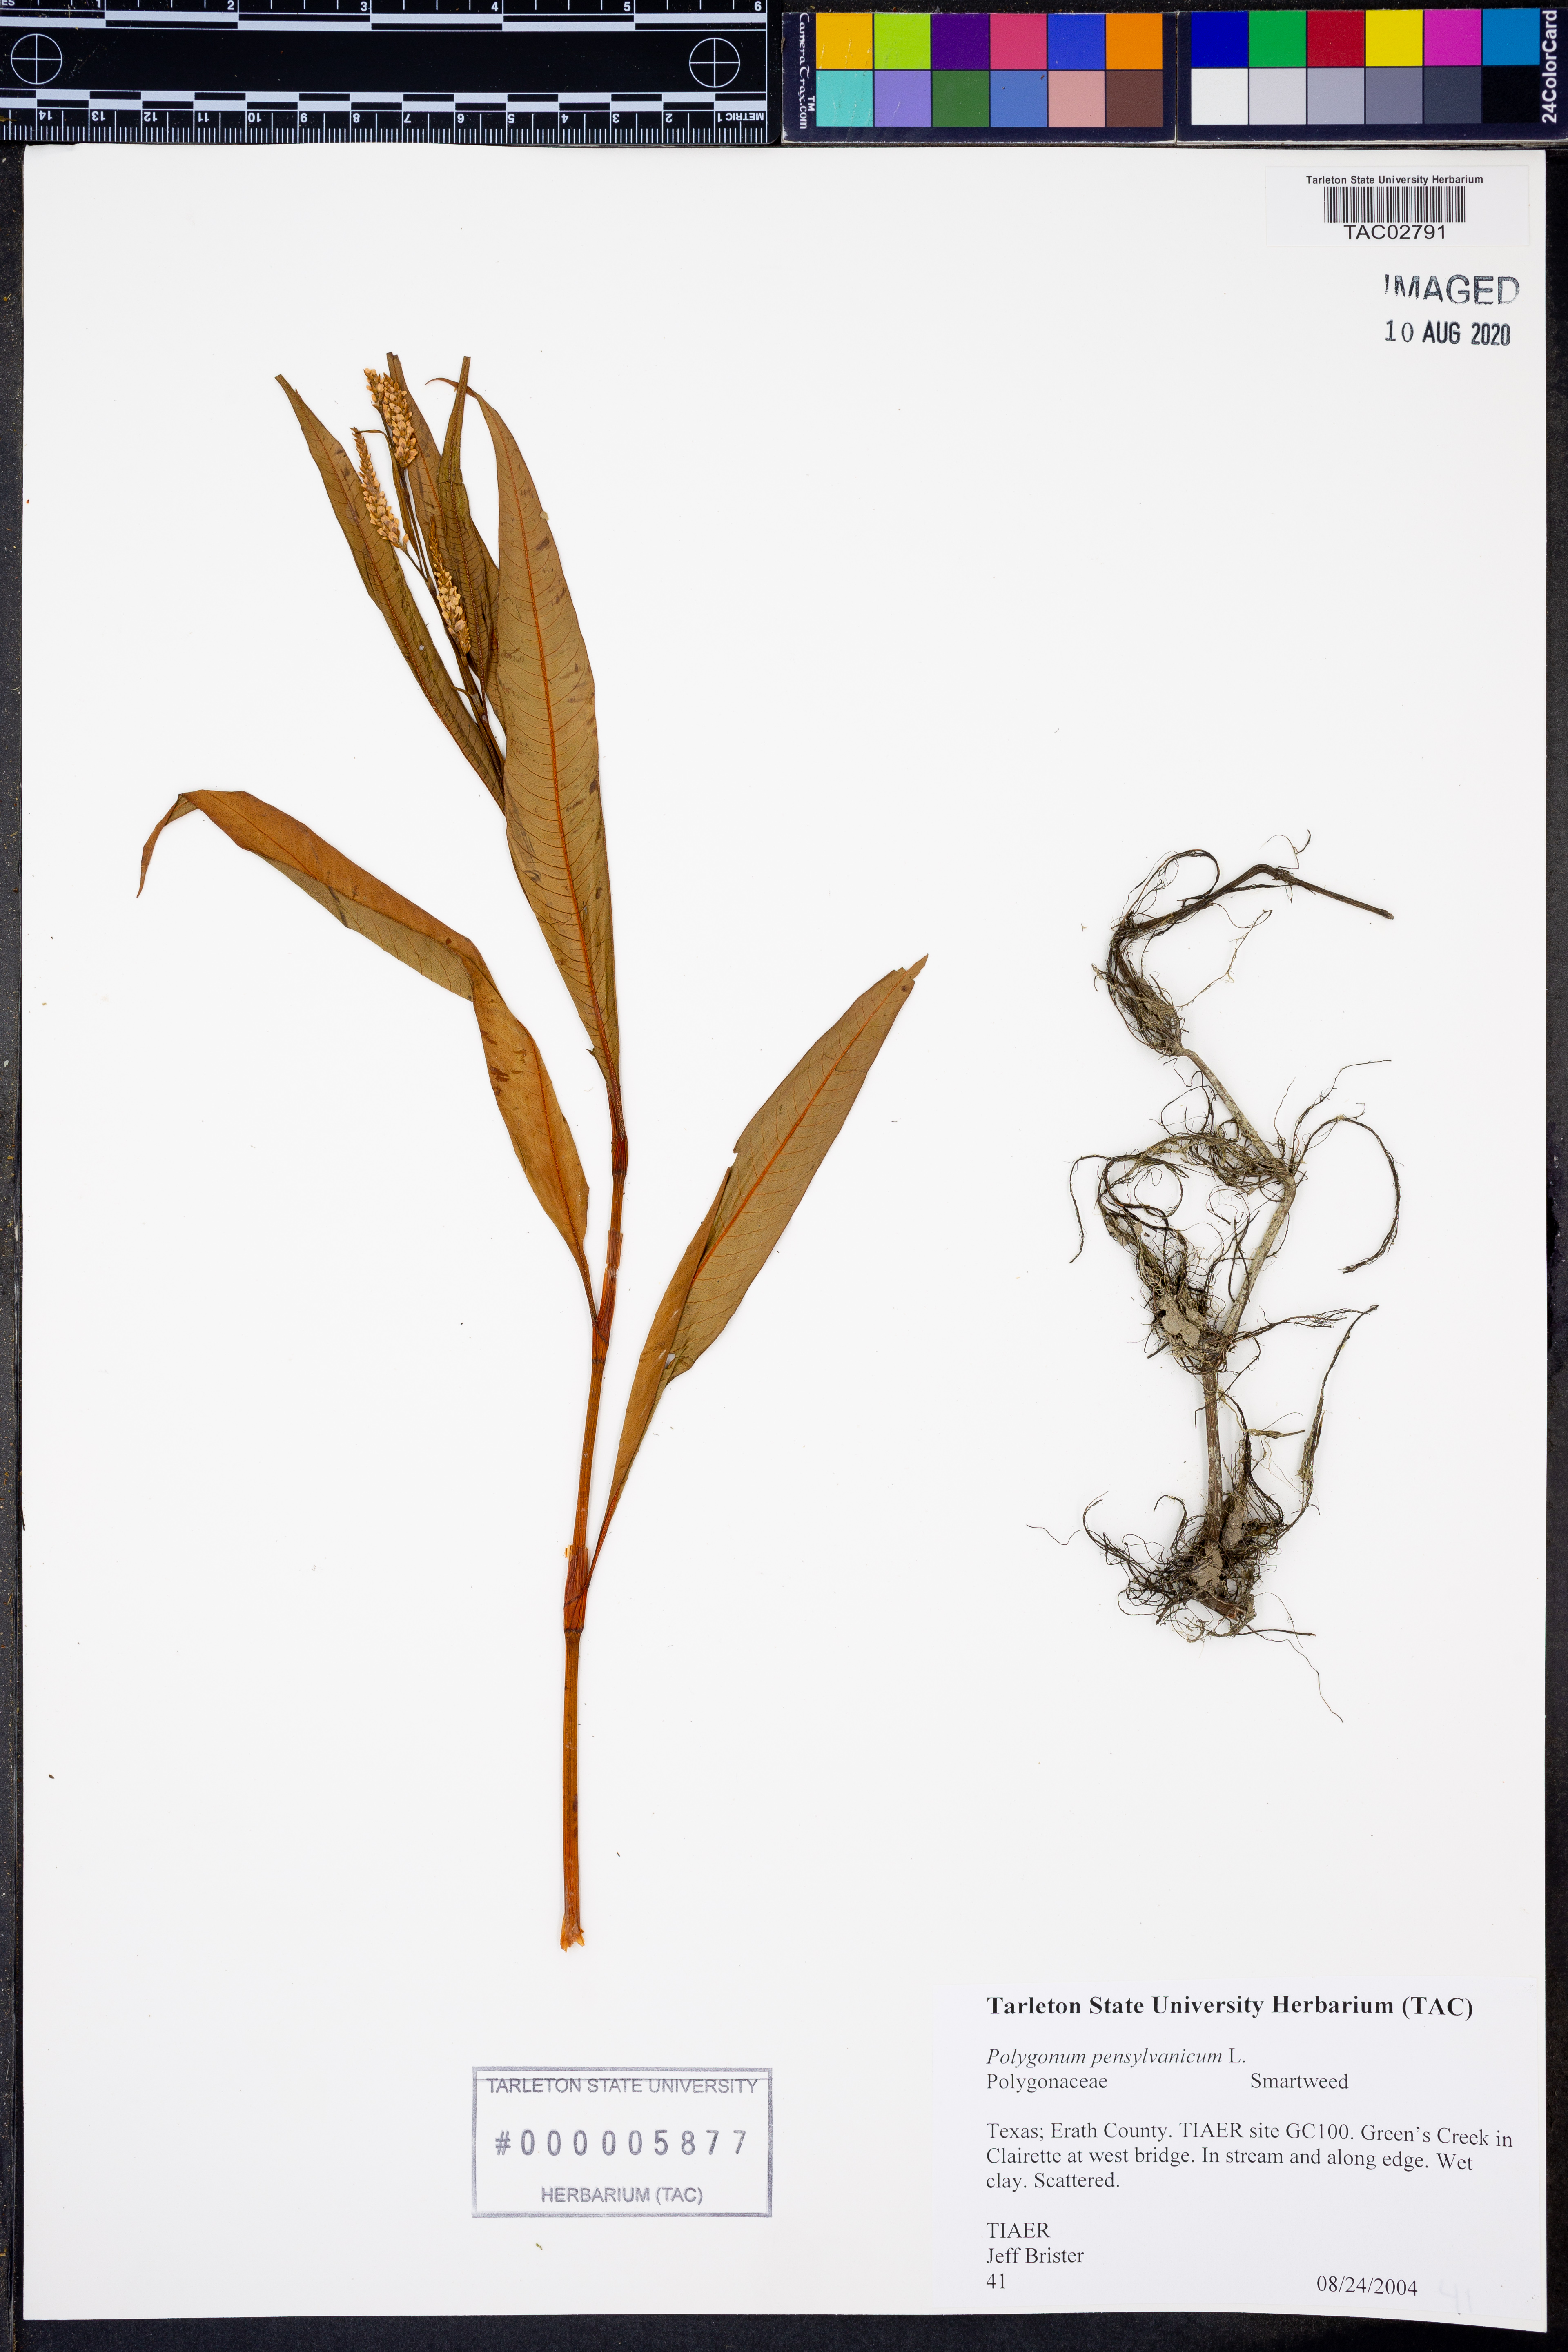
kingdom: Plantae
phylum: Tracheophyta
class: Magnoliopsida
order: Caryophyllales
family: Polygonaceae
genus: Persicaria
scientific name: Persicaria pensylvanica
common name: Pinkweed
